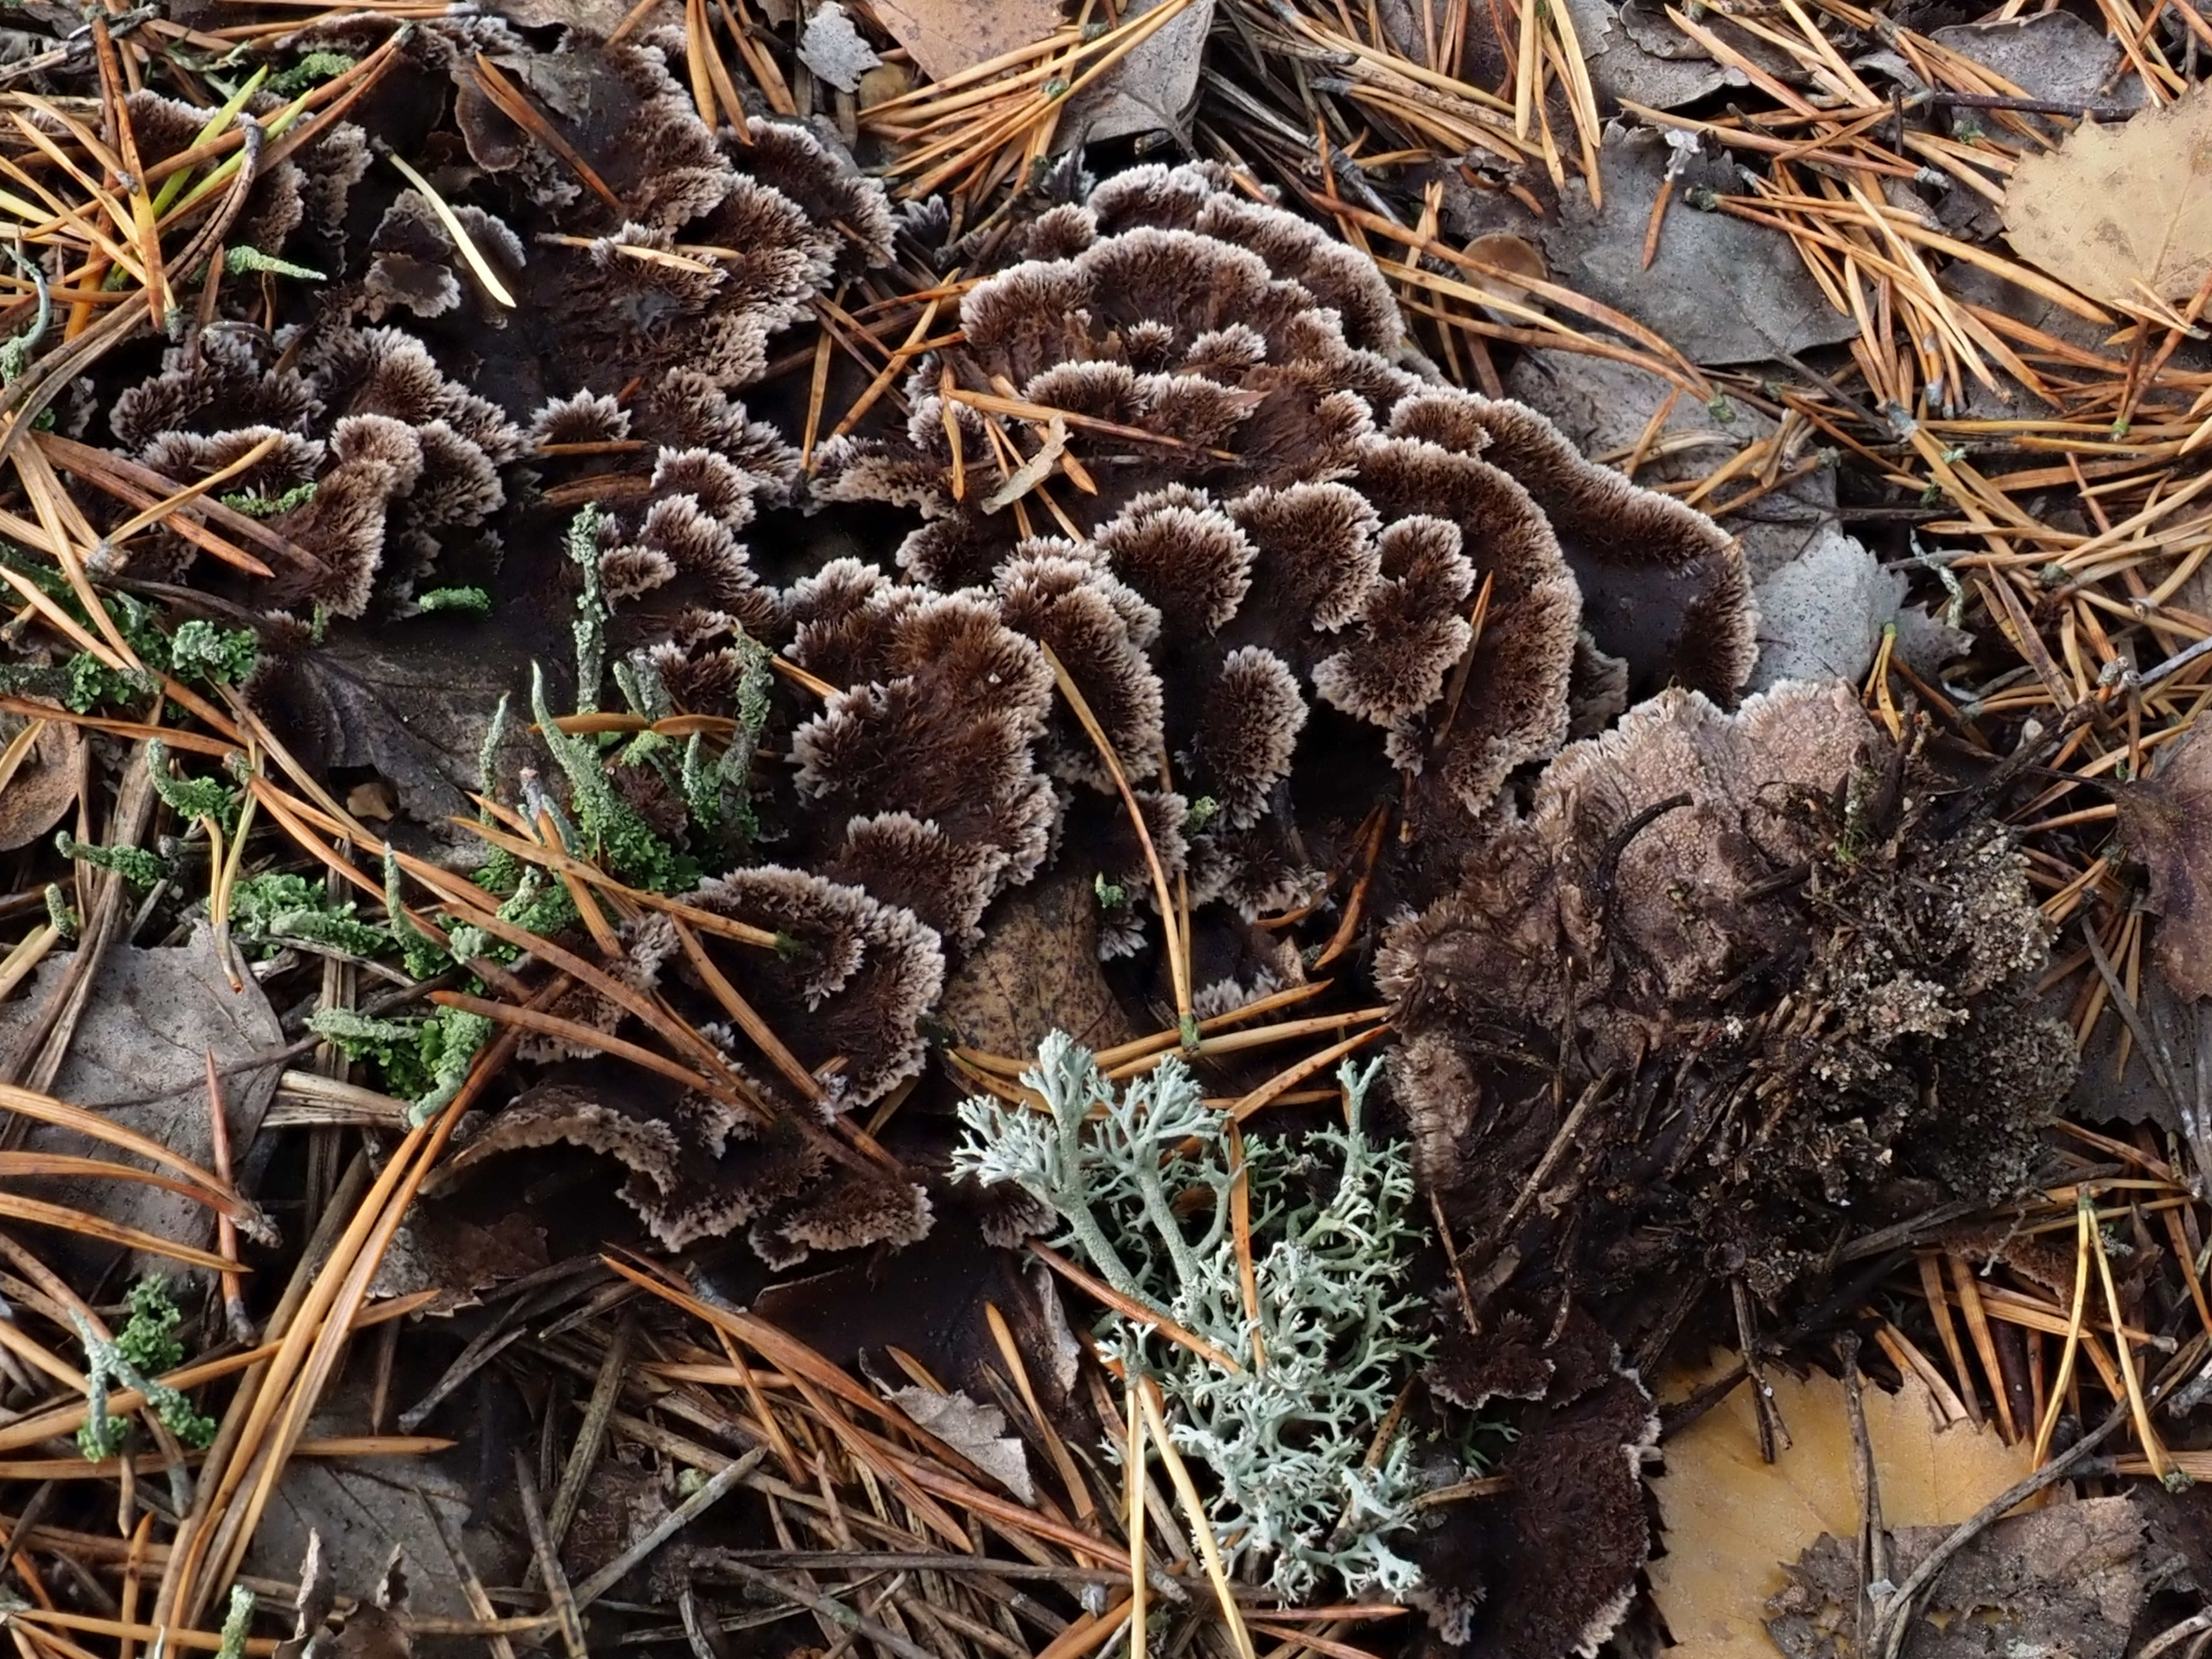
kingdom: Fungi
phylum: Basidiomycota
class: Agaricomycetes
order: Thelephorales
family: Thelephoraceae
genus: Thelephora
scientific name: Thelephora terrestris
